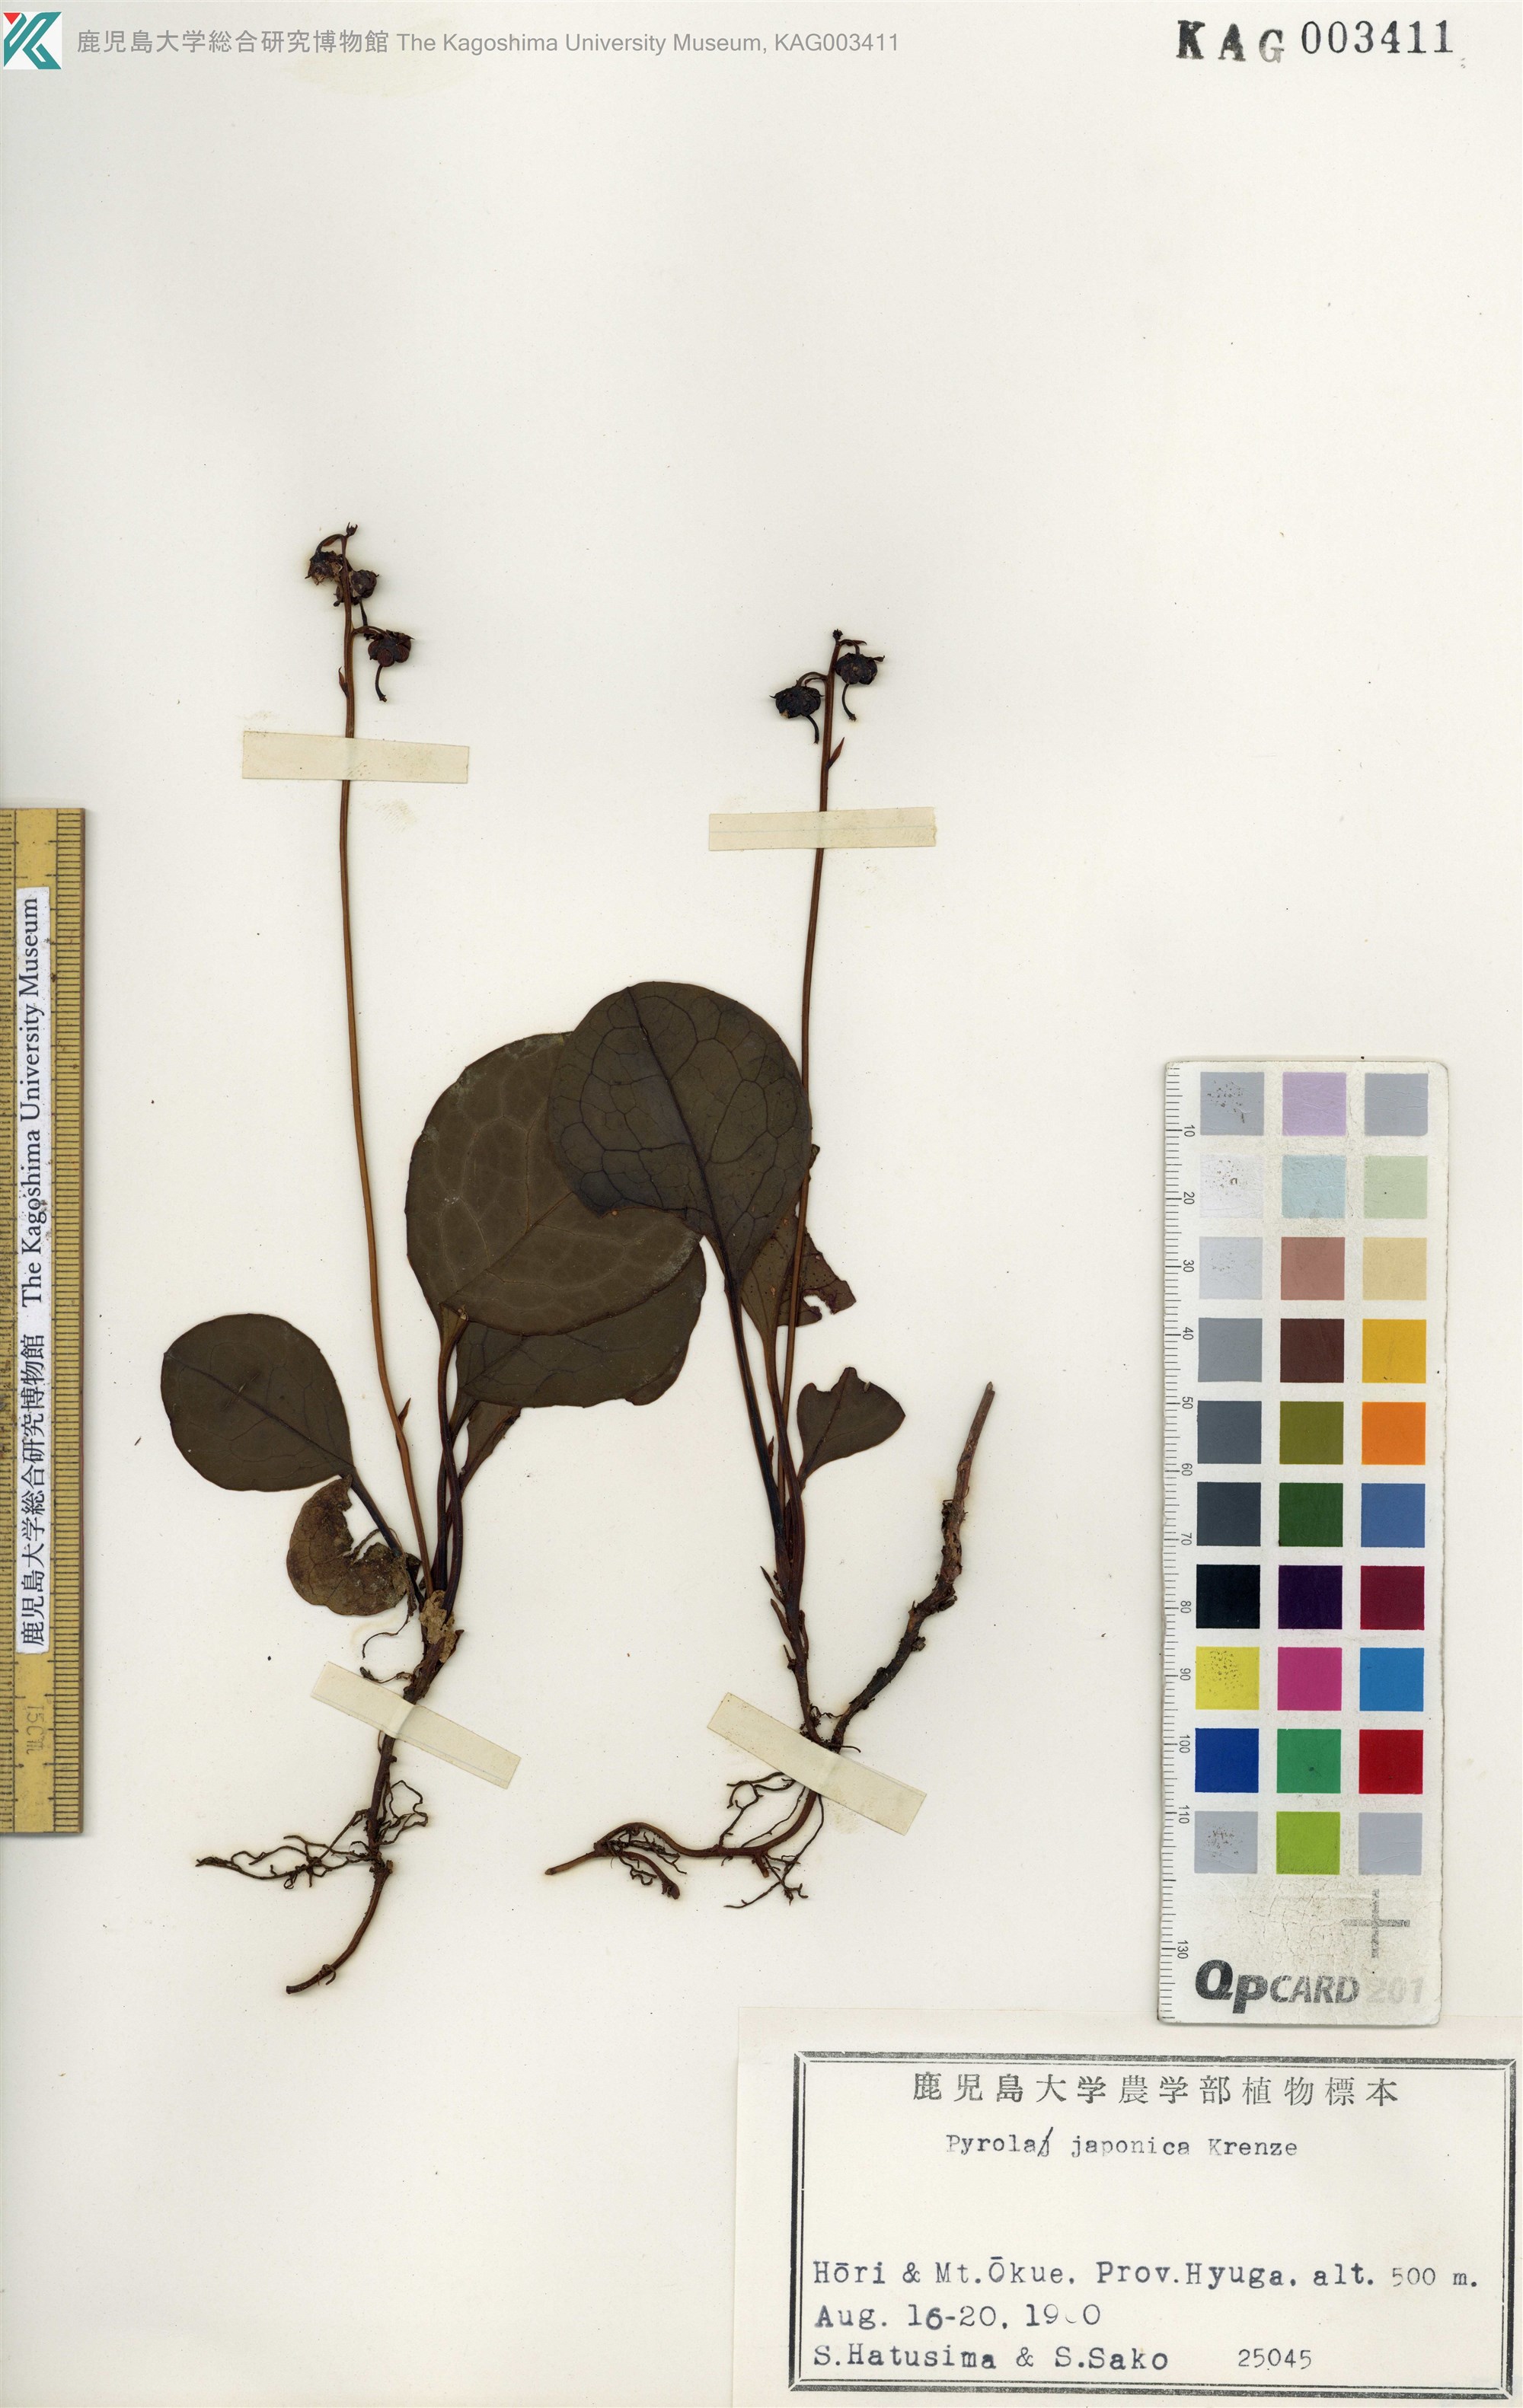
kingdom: Plantae
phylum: Tracheophyta
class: Magnoliopsida
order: Ericales
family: Ericaceae
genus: Pyrola
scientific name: Pyrola japonica
